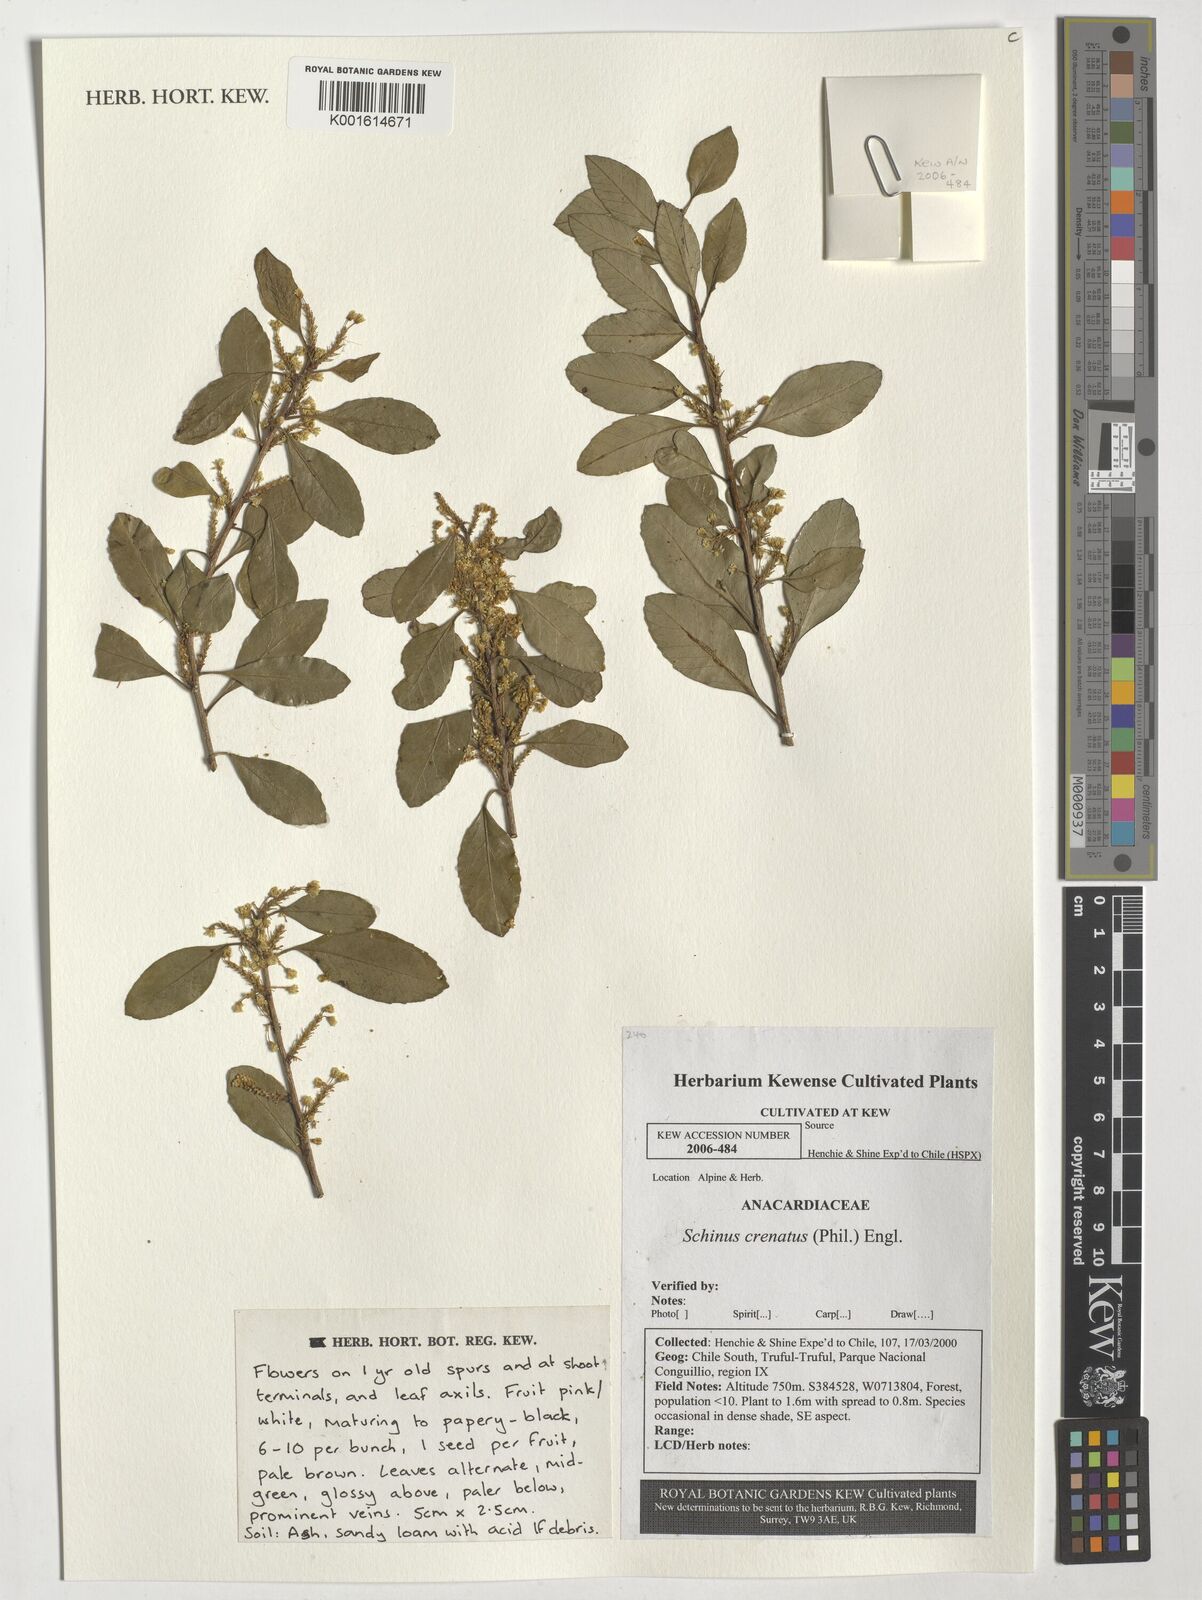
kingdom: Plantae
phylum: Tracheophyta
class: Magnoliopsida
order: Sapindales
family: Anacardiaceae
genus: Schinus
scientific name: Schinus polygama
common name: Hardee peppertree
